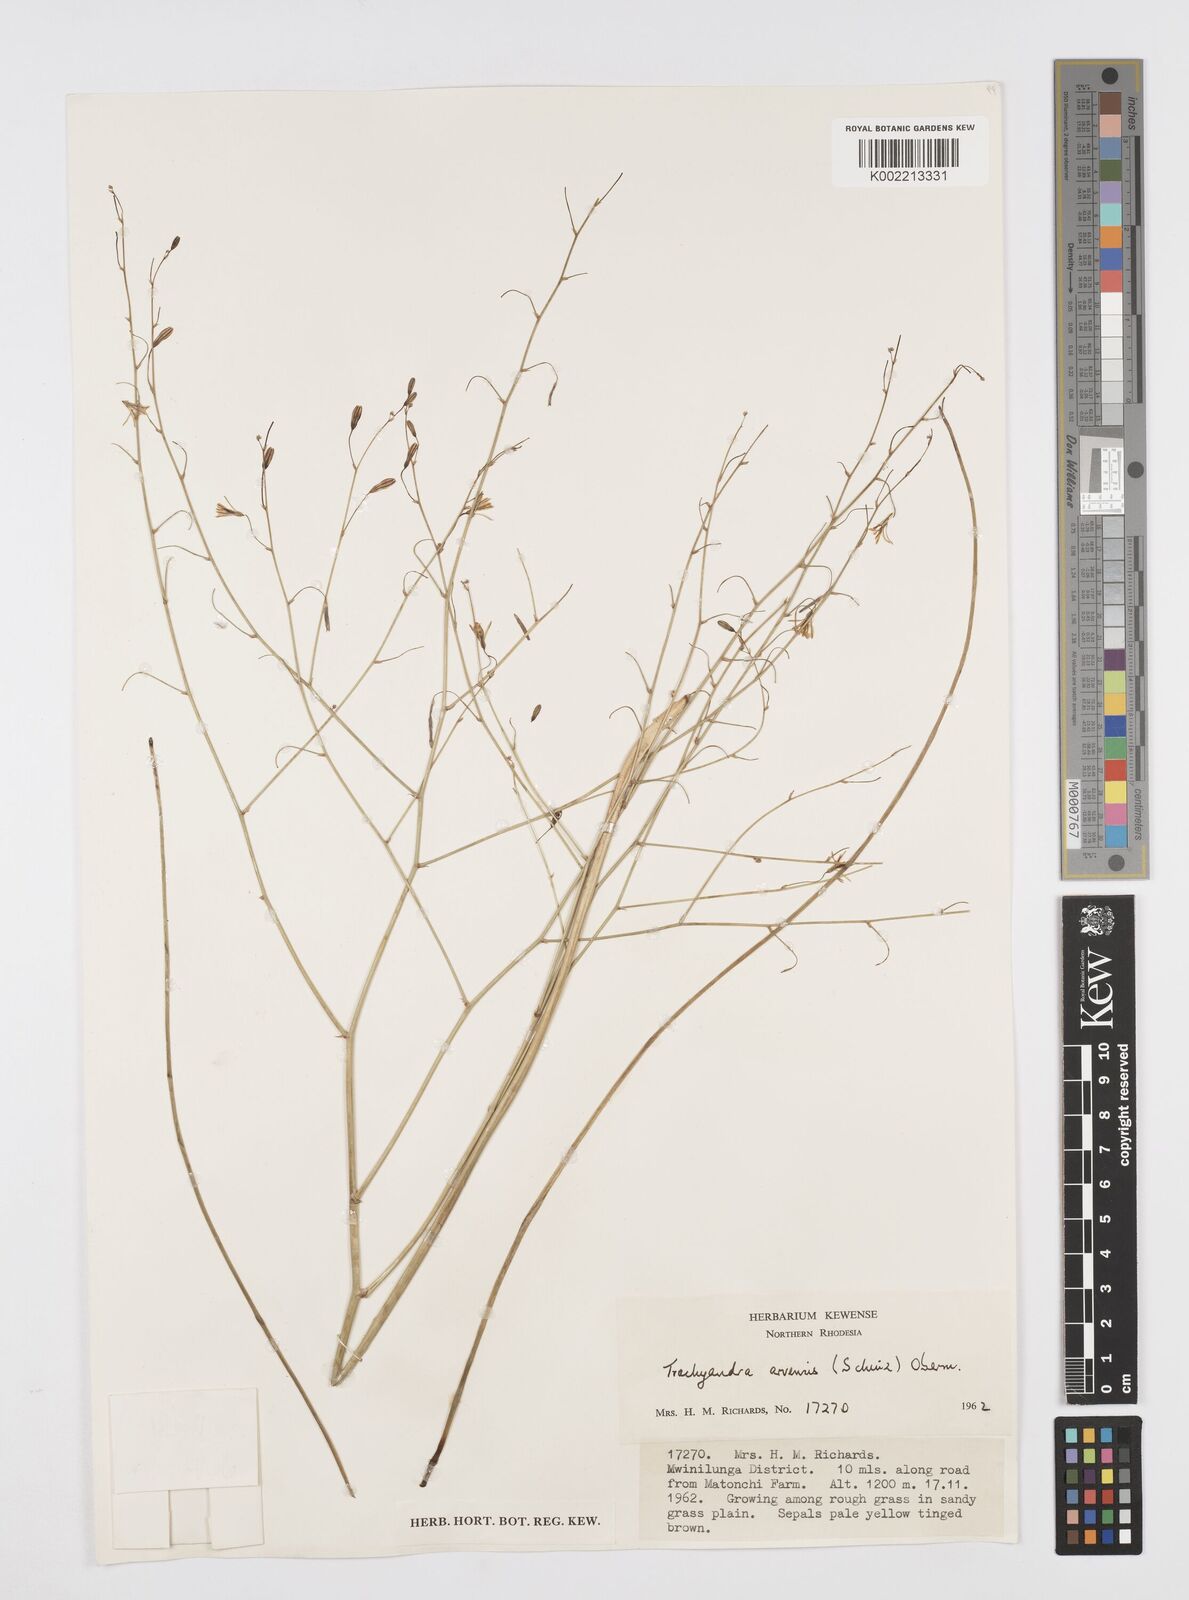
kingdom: Plantae
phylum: Tracheophyta
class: Liliopsida
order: Asparagales
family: Asphodelaceae
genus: Trachyandra
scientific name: Trachyandra arvensis
